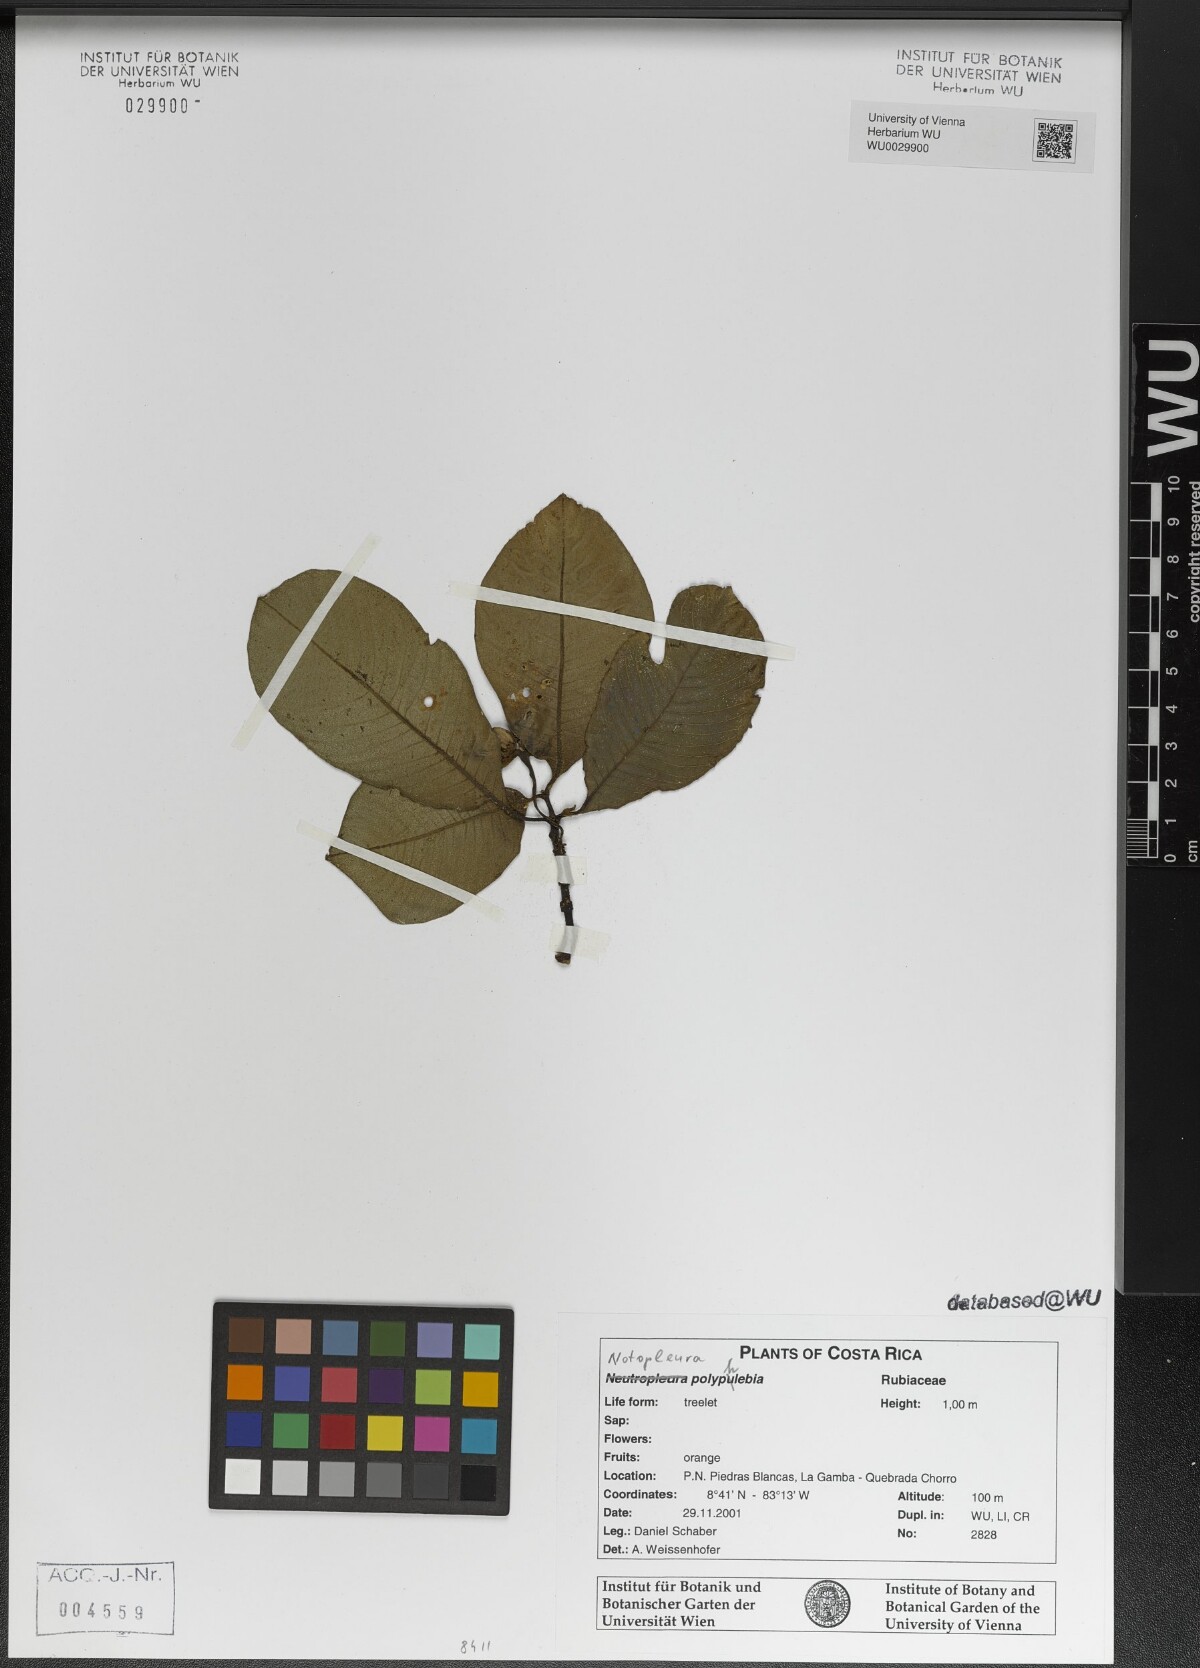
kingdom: Plantae
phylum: Tracheophyta
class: Magnoliopsida
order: Gentianales
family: Rubiaceae
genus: Notopleura
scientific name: Notopleura polyphlebia
